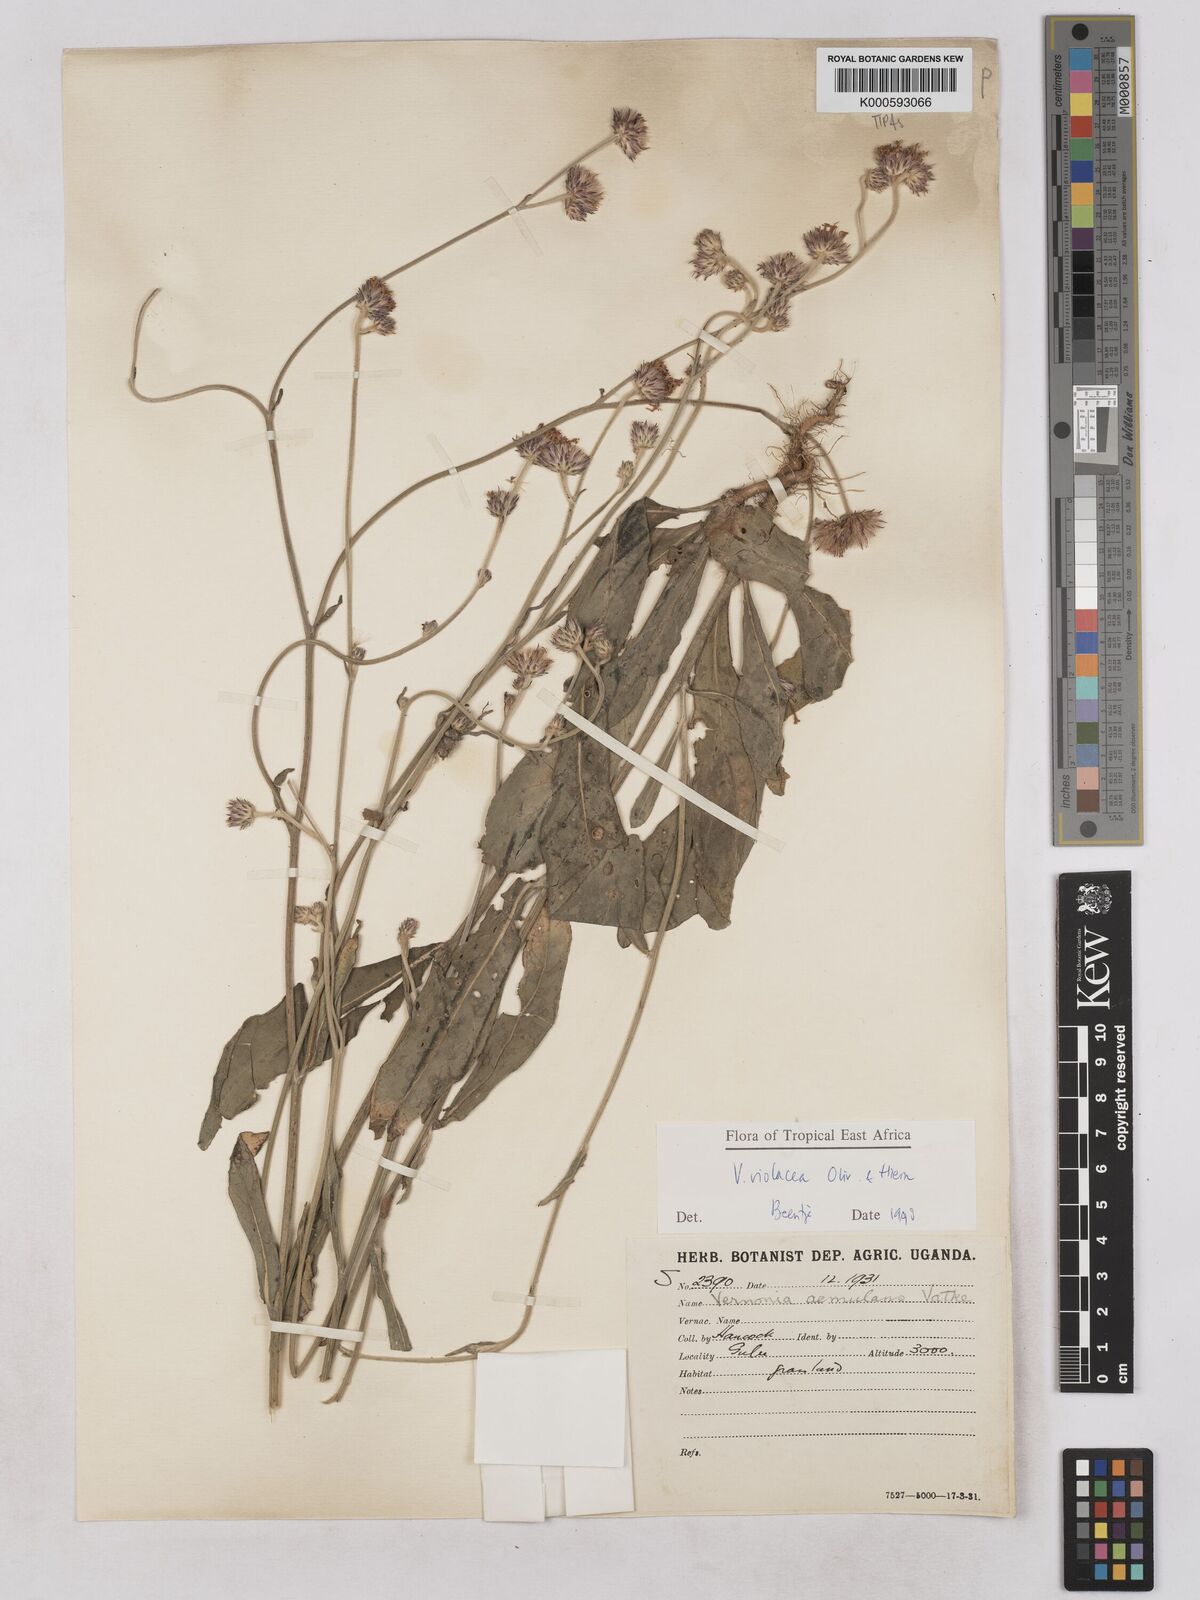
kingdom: Plantae
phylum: Tracheophyta
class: Magnoliopsida
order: Asterales
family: Asteraceae
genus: Vernonia
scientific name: Vernonia violacea
